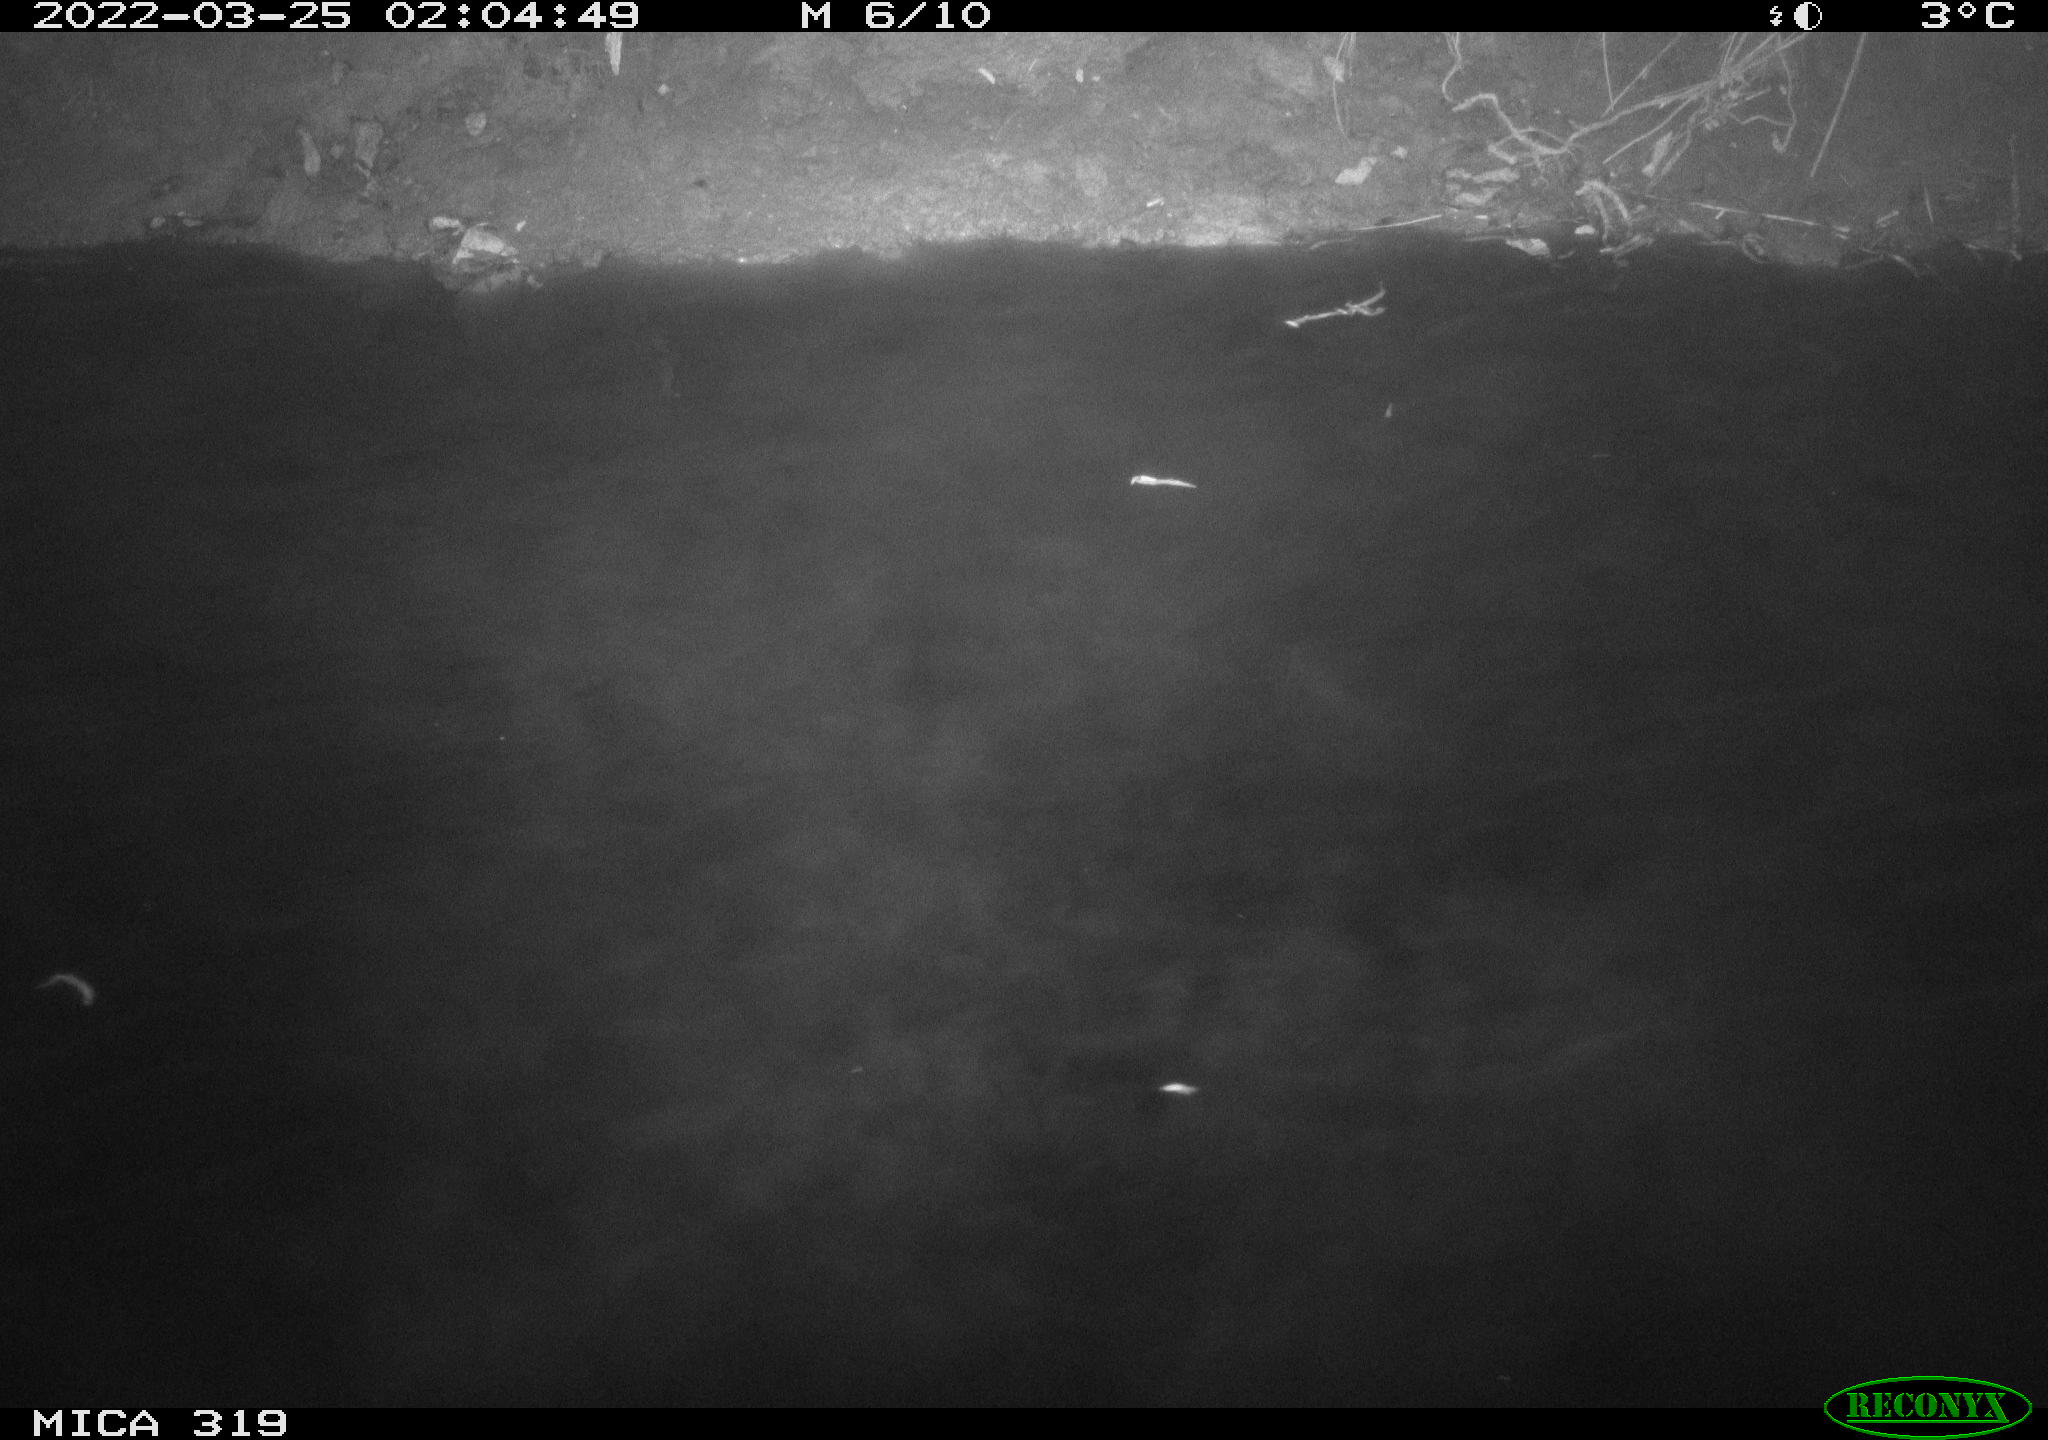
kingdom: Animalia
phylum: Chordata
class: Aves
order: Anseriformes
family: Anatidae
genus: Anas
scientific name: Anas platyrhynchos
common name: Mallard
